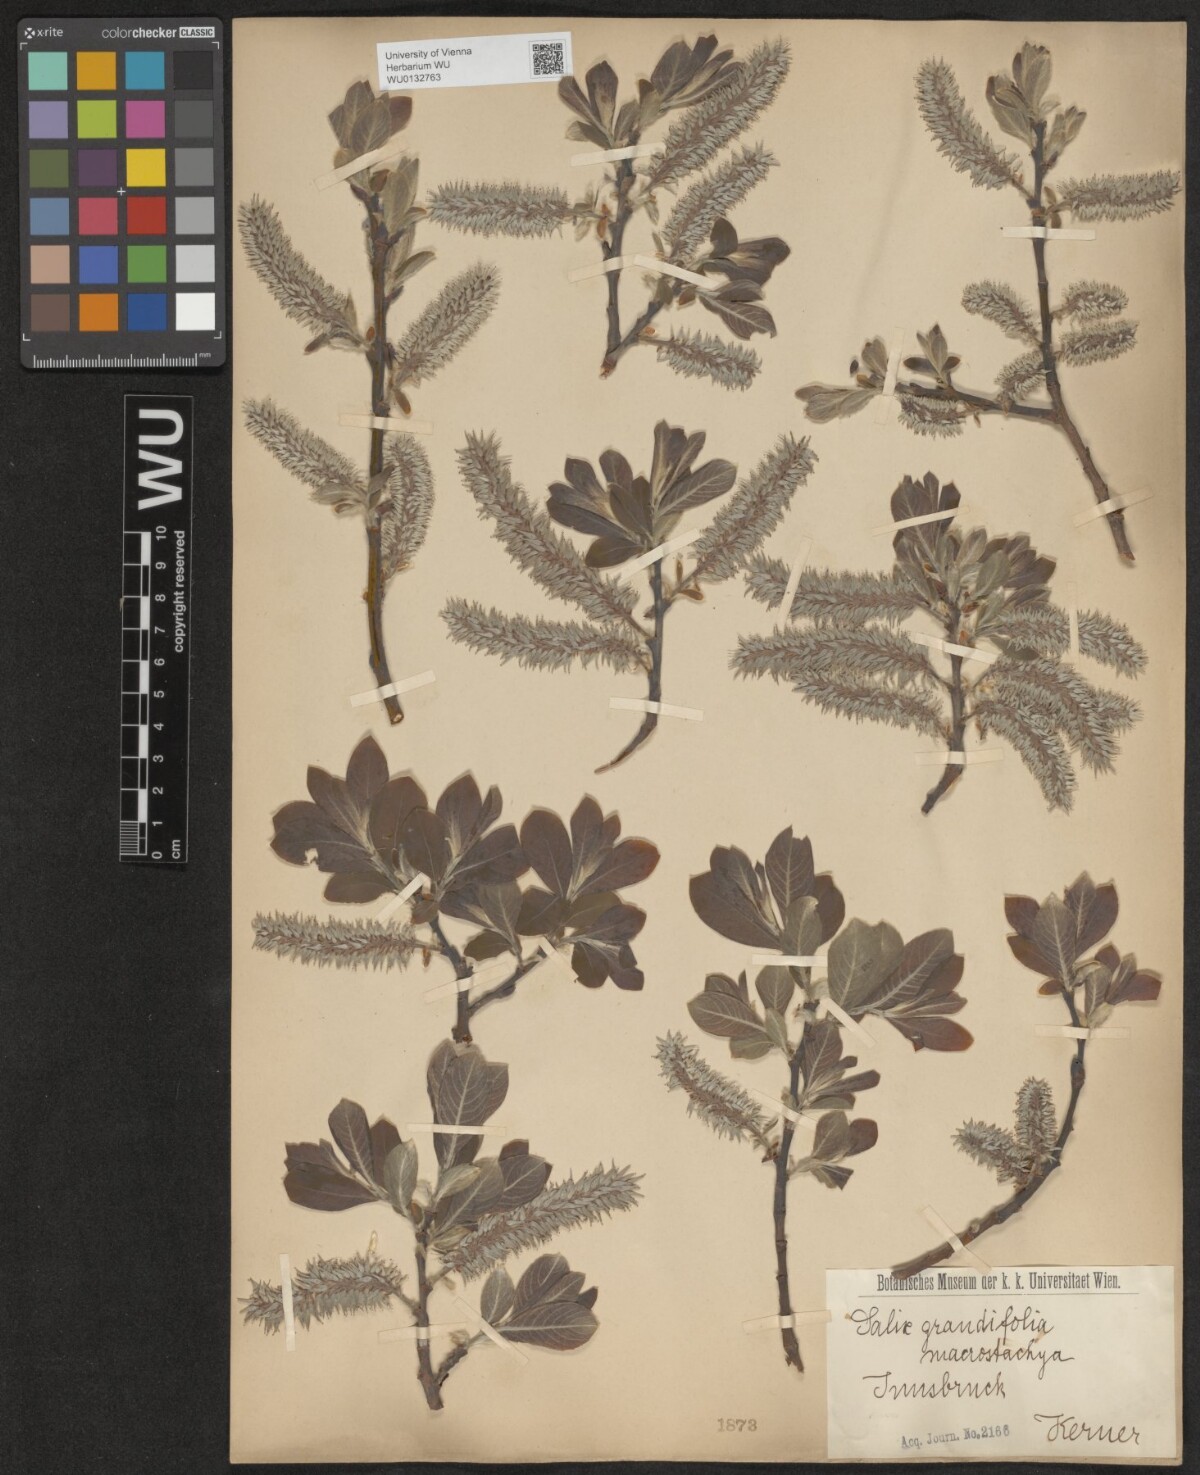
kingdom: Plantae
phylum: Tracheophyta
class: Magnoliopsida
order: Malpighiales
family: Salicaceae
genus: Salix
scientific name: Salix appendiculata
